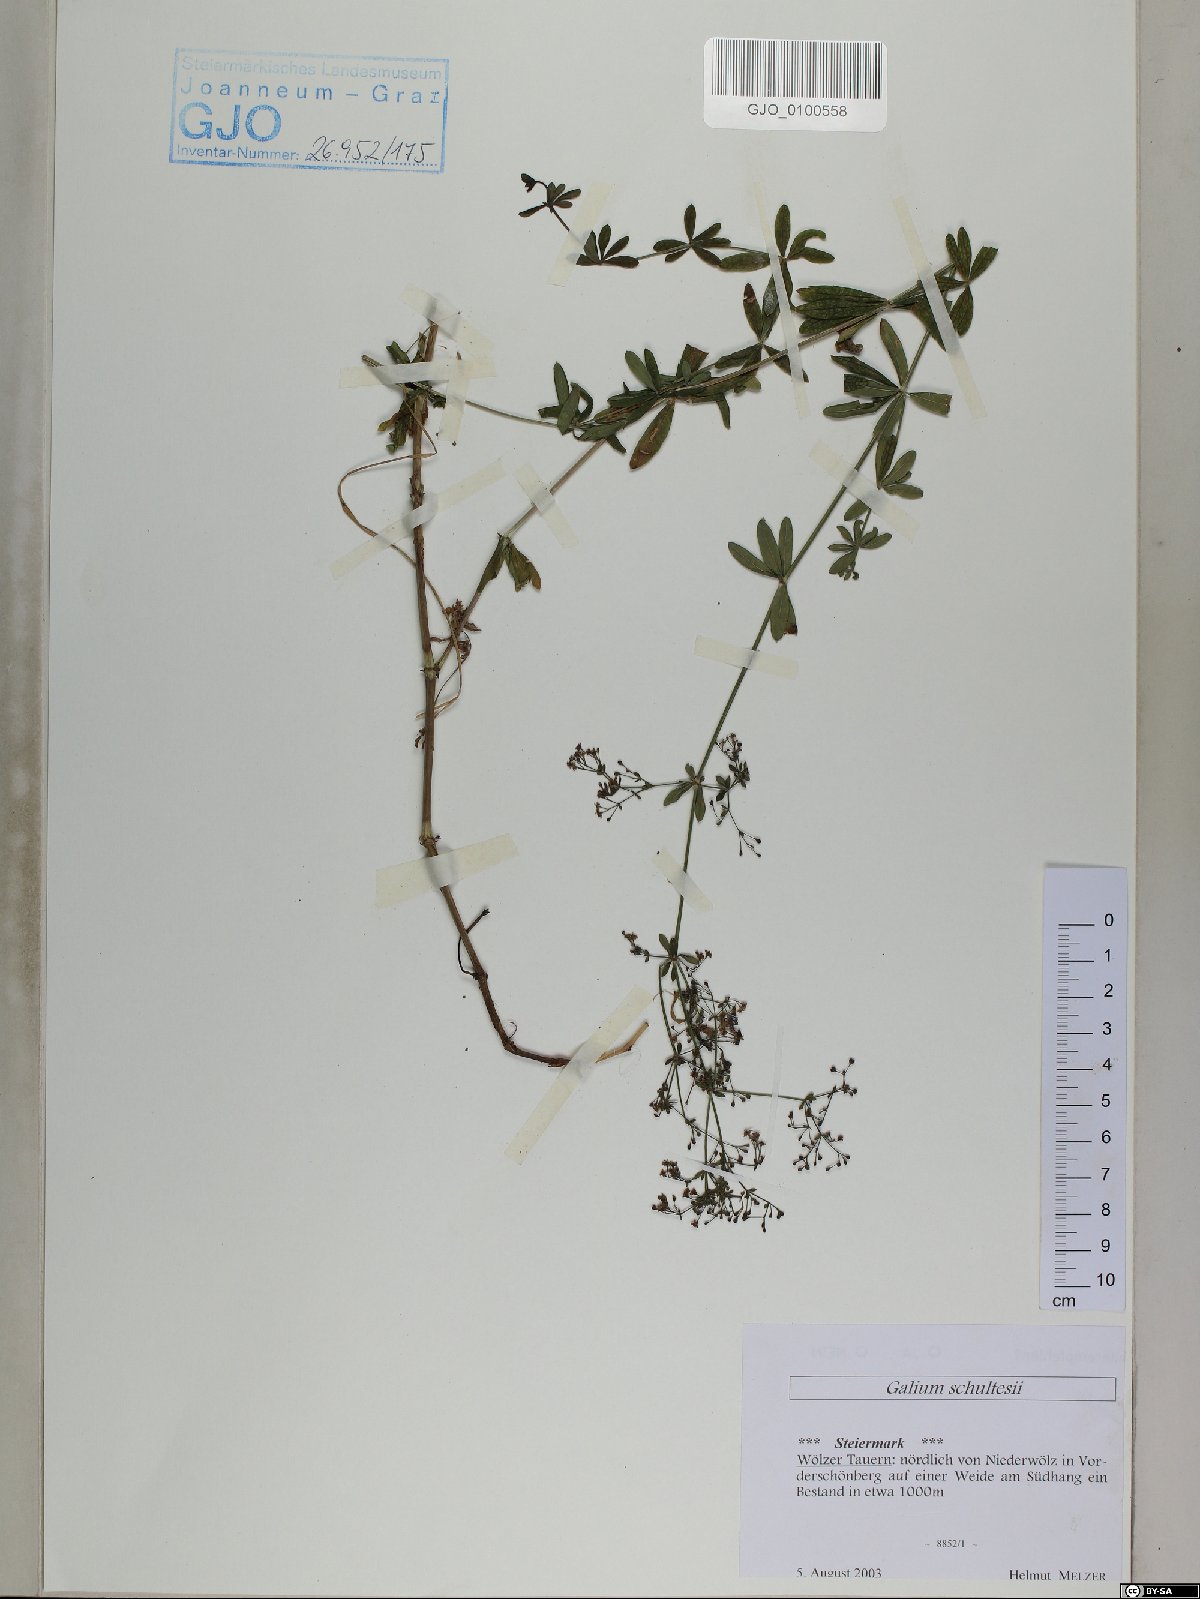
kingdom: Plantae
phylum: Tracheophyta
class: Magnoliopsida
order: Gentianales
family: Rubiaceae
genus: Galium
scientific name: Galium intermedium
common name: Bedstraw
